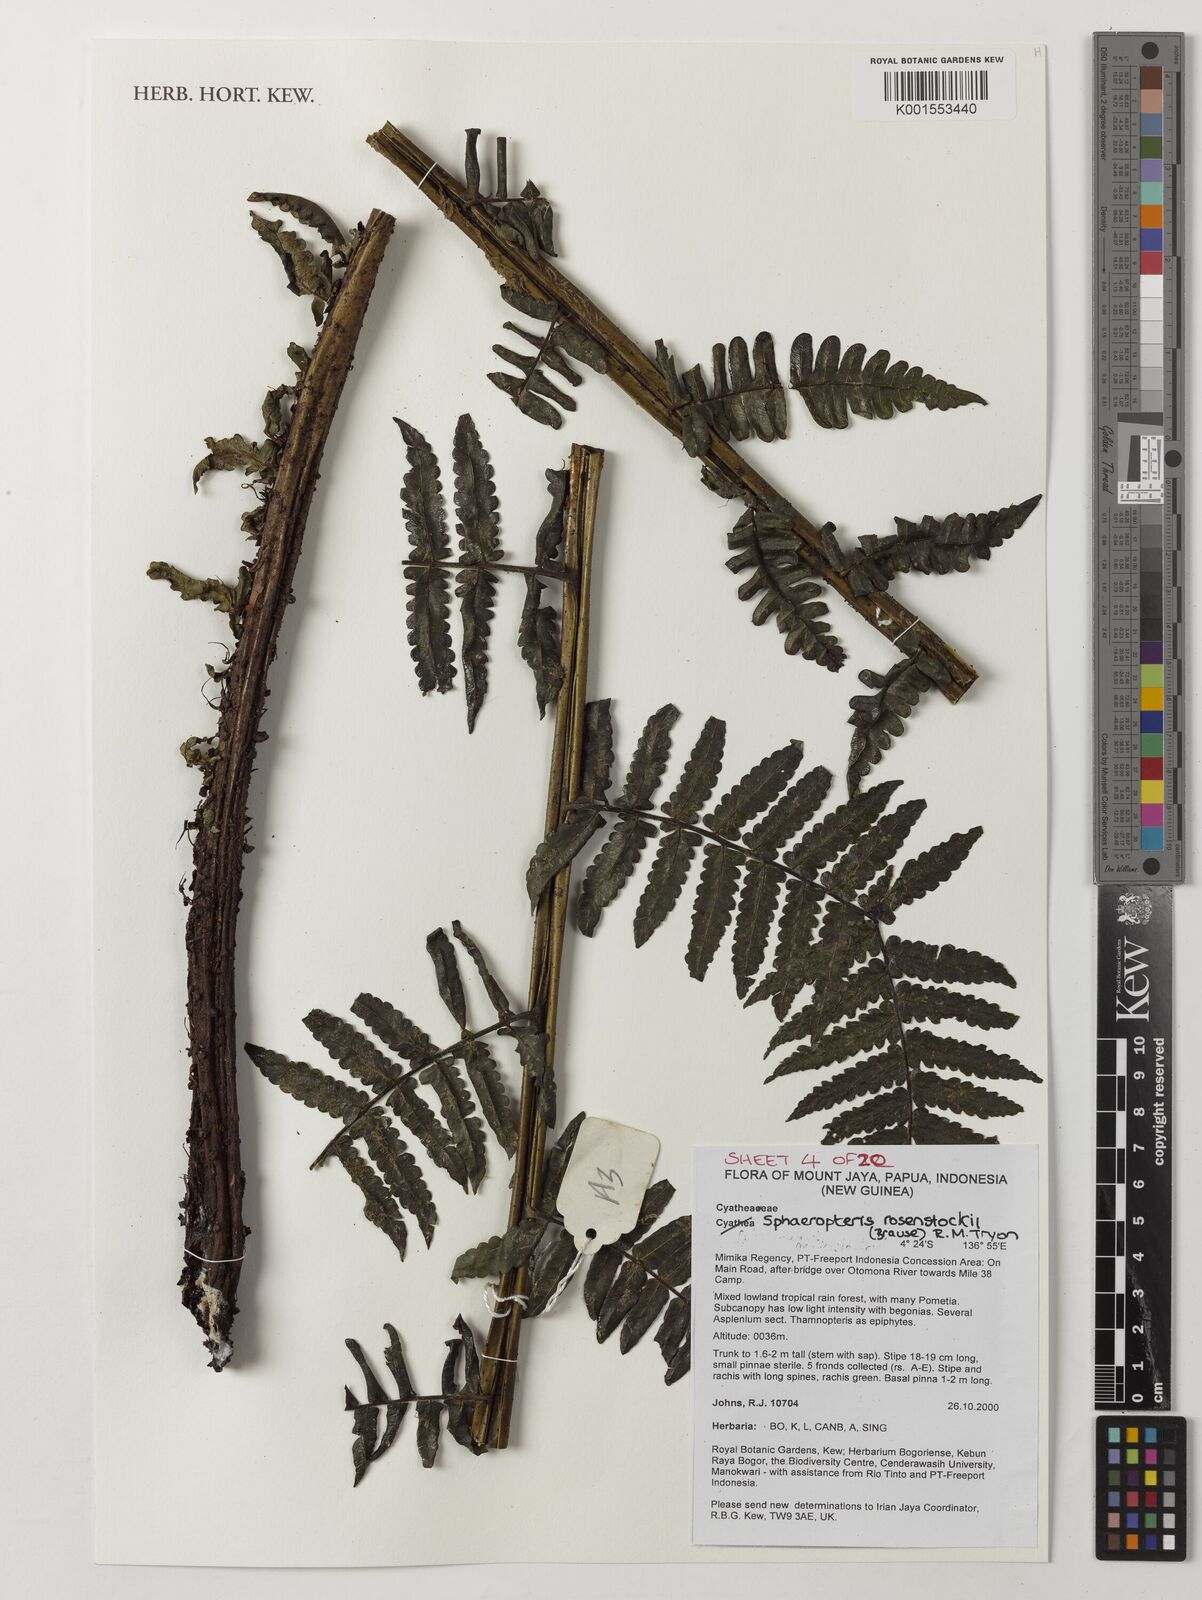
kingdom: Plantae
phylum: Tracheophyta
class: Polypodiopsida
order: Cyatheales
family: Cyatheaceae
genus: Sphaeropteris
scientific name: Sphaeropteris rosenstockii
